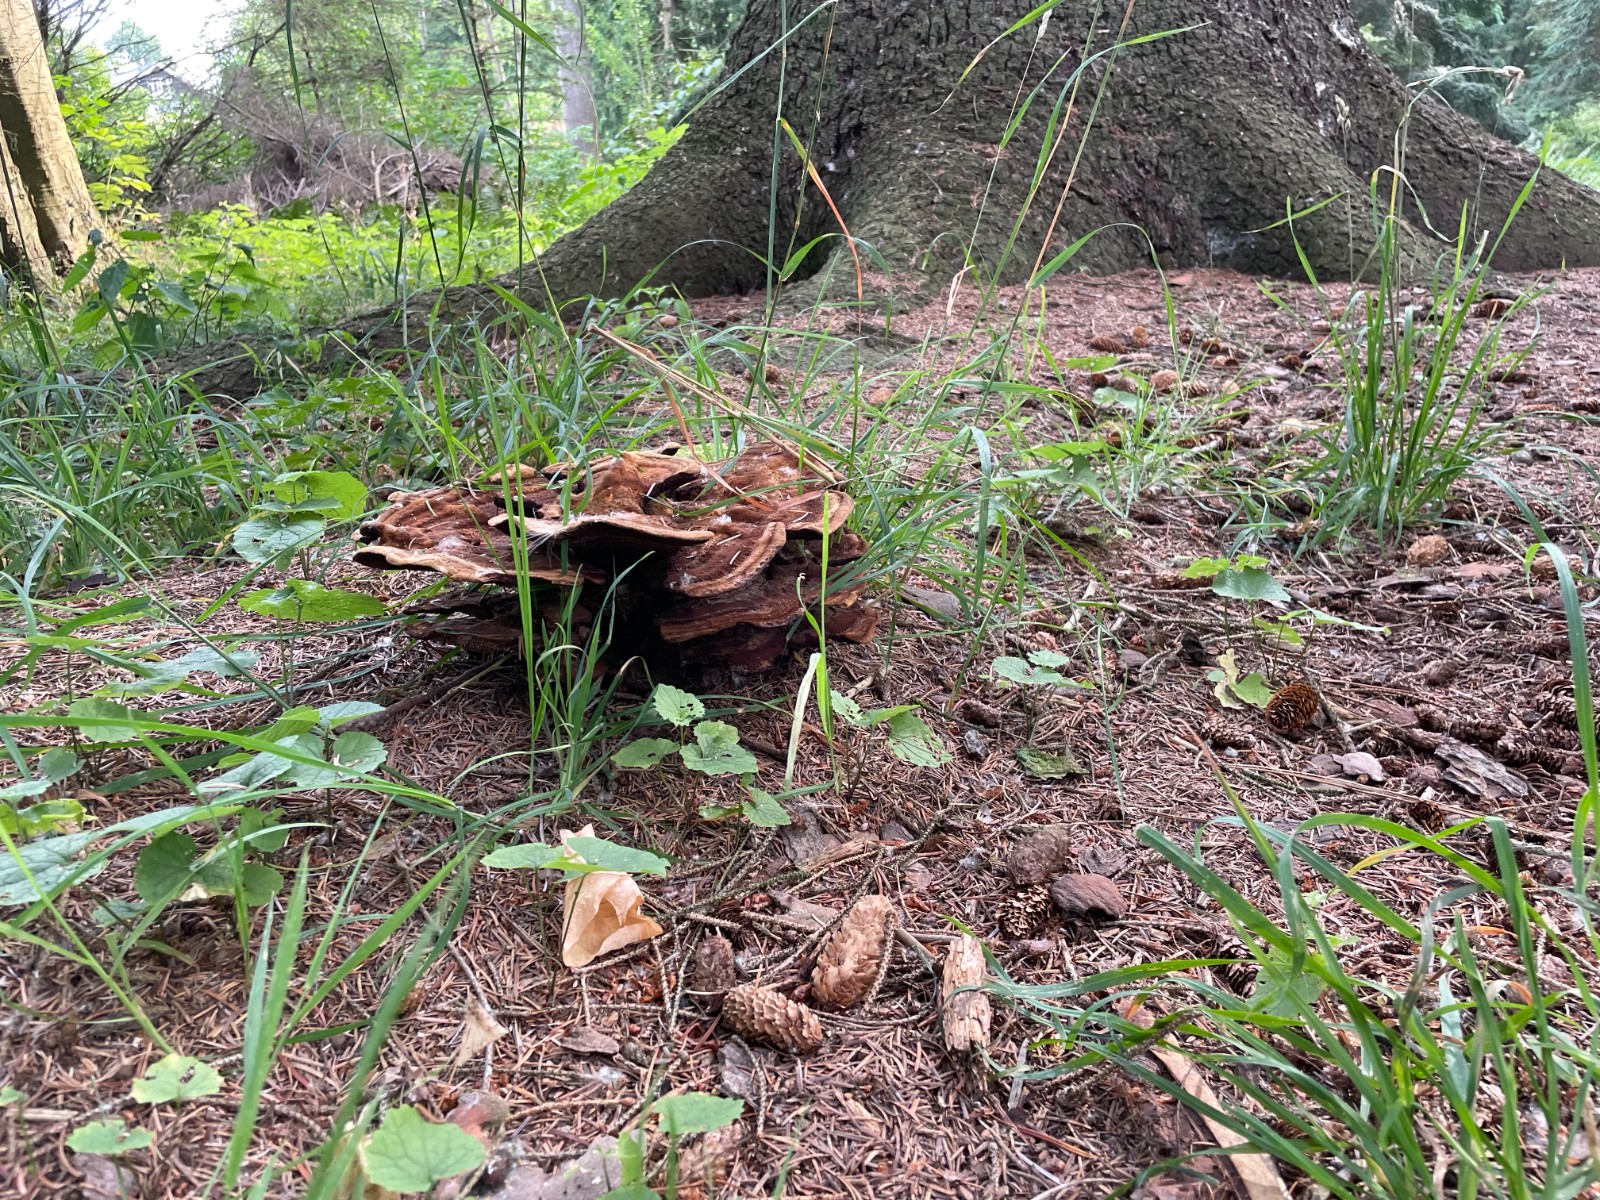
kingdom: Fungi
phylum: Basidiomycota
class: Agaricomycetes
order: Polyporales
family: Laetiporaceae
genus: Phaeolus
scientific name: Phaeolus schweinitzii
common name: brunporesvamp
